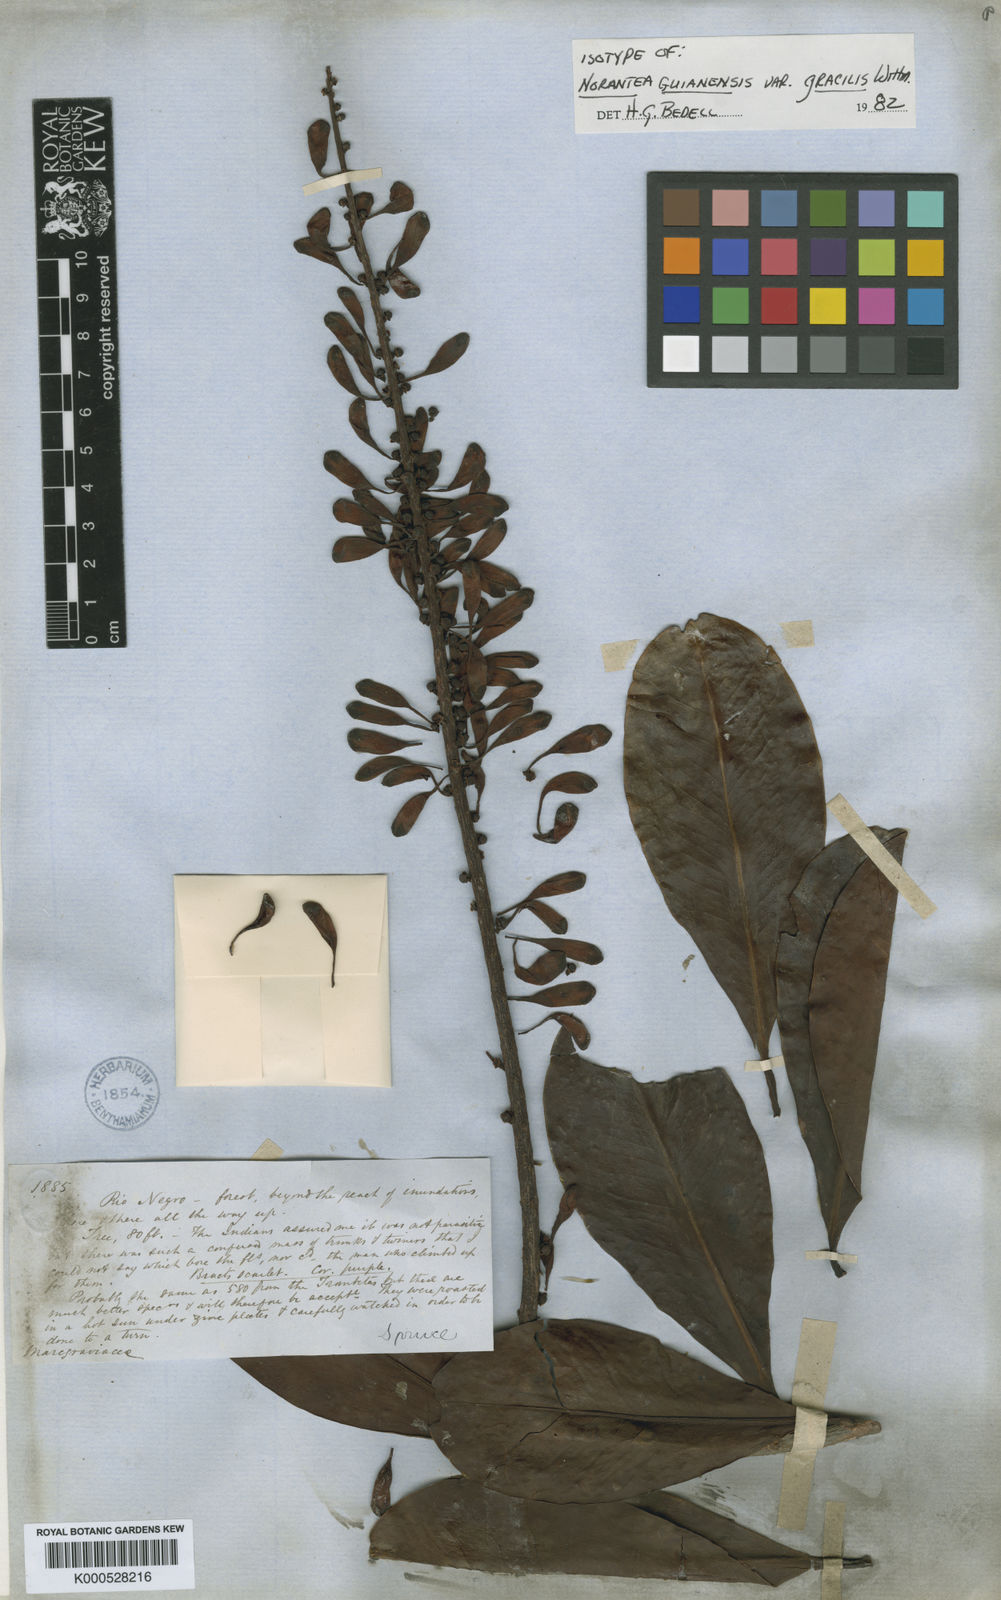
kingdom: Plantae
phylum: Tracheophyta
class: Magnoliopsida
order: Ericales
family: Marcgraviaceae
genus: Norantea
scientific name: Norantea guianensis
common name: Red hot poker vine
